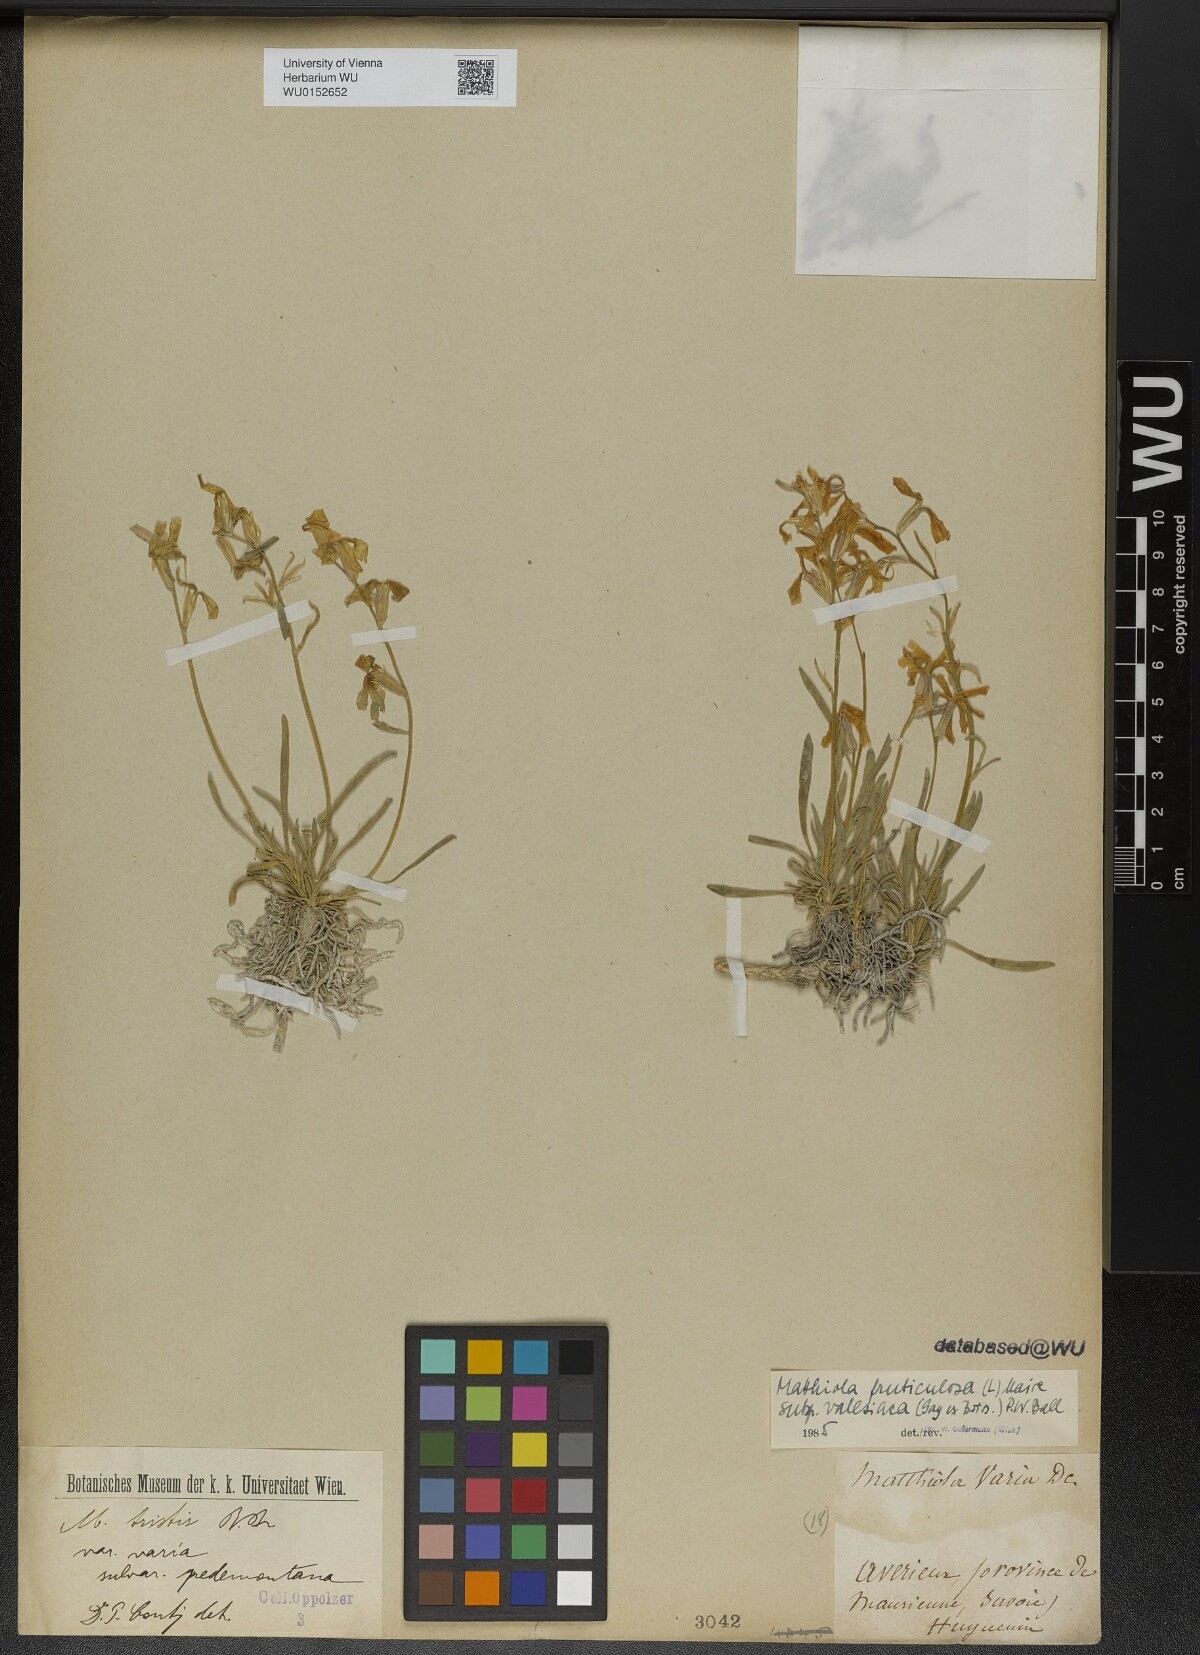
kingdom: Plantae
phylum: Tracheophyta
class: Magnoliopsida
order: Brassicales
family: Brassicaceae
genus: Matthiola
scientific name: Matthiola fruticulosa
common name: Sad stock
